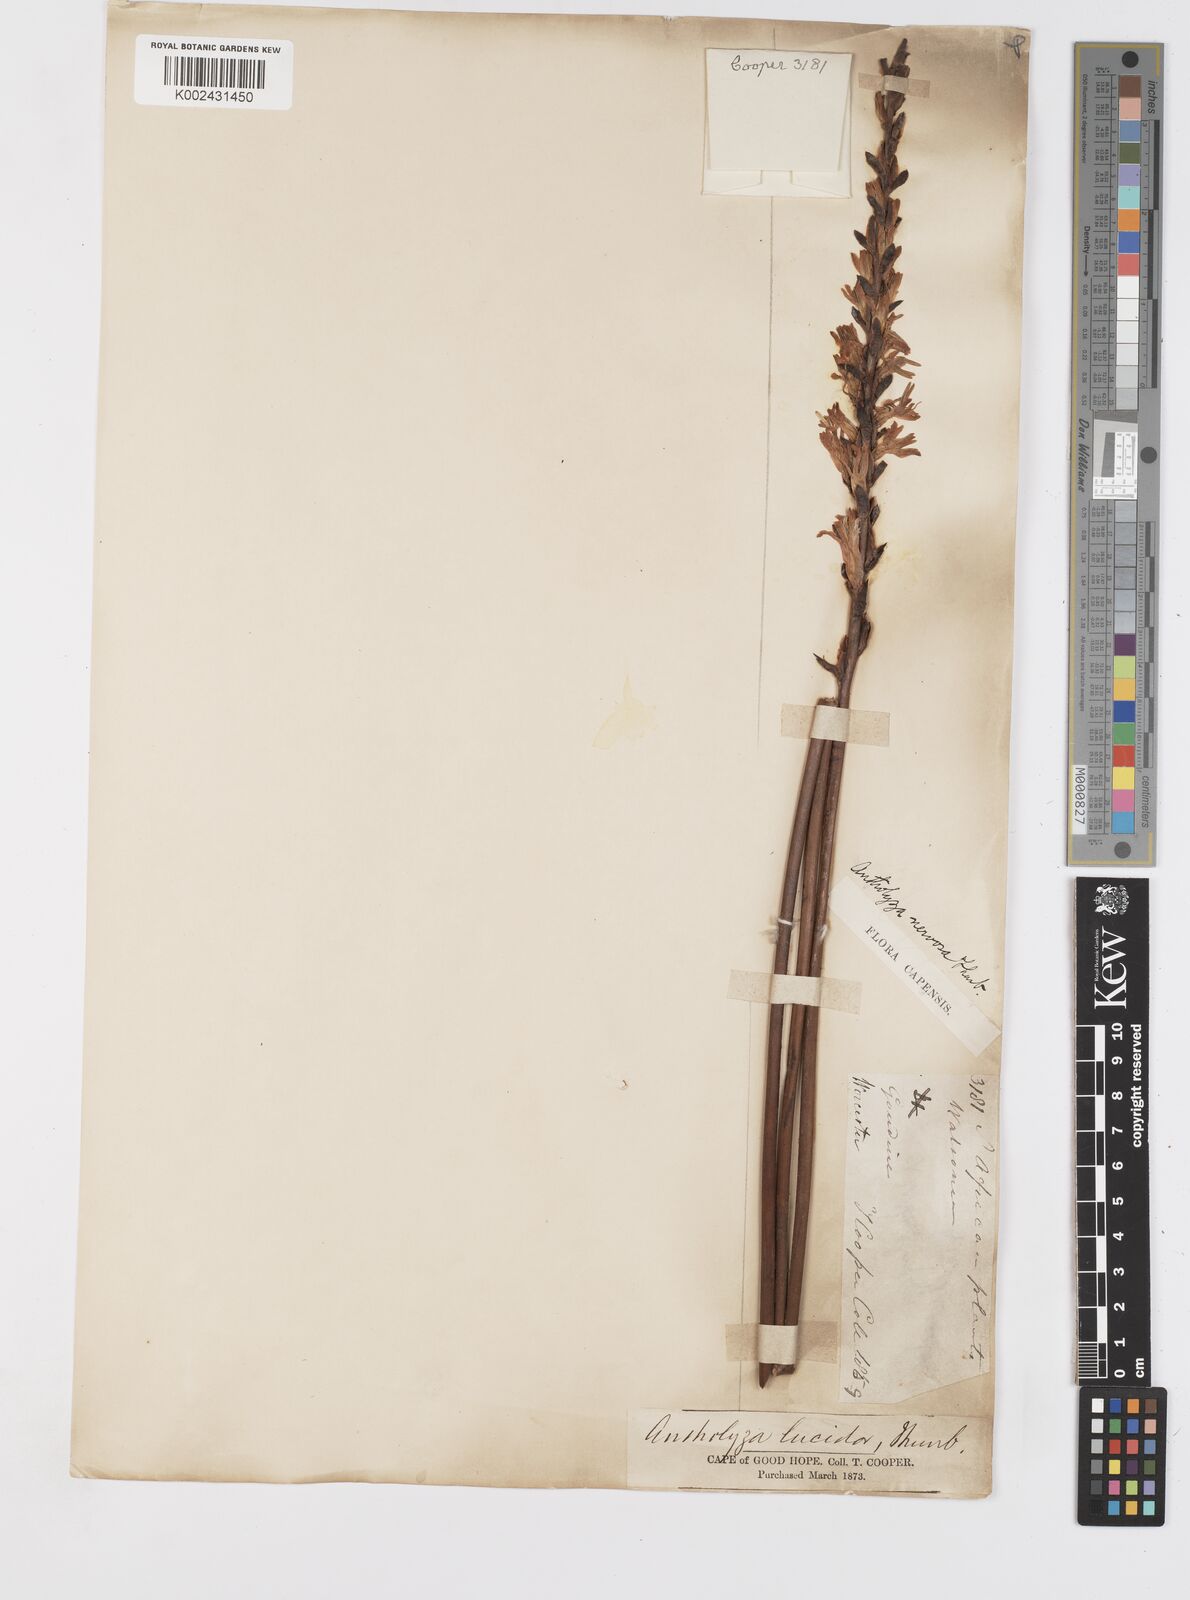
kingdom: Plantae
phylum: Tracheophyta
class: Liliopsida
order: Asparagales
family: Iridaceae
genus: Tritoniopsis
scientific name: Tritoniopsis antholyza
